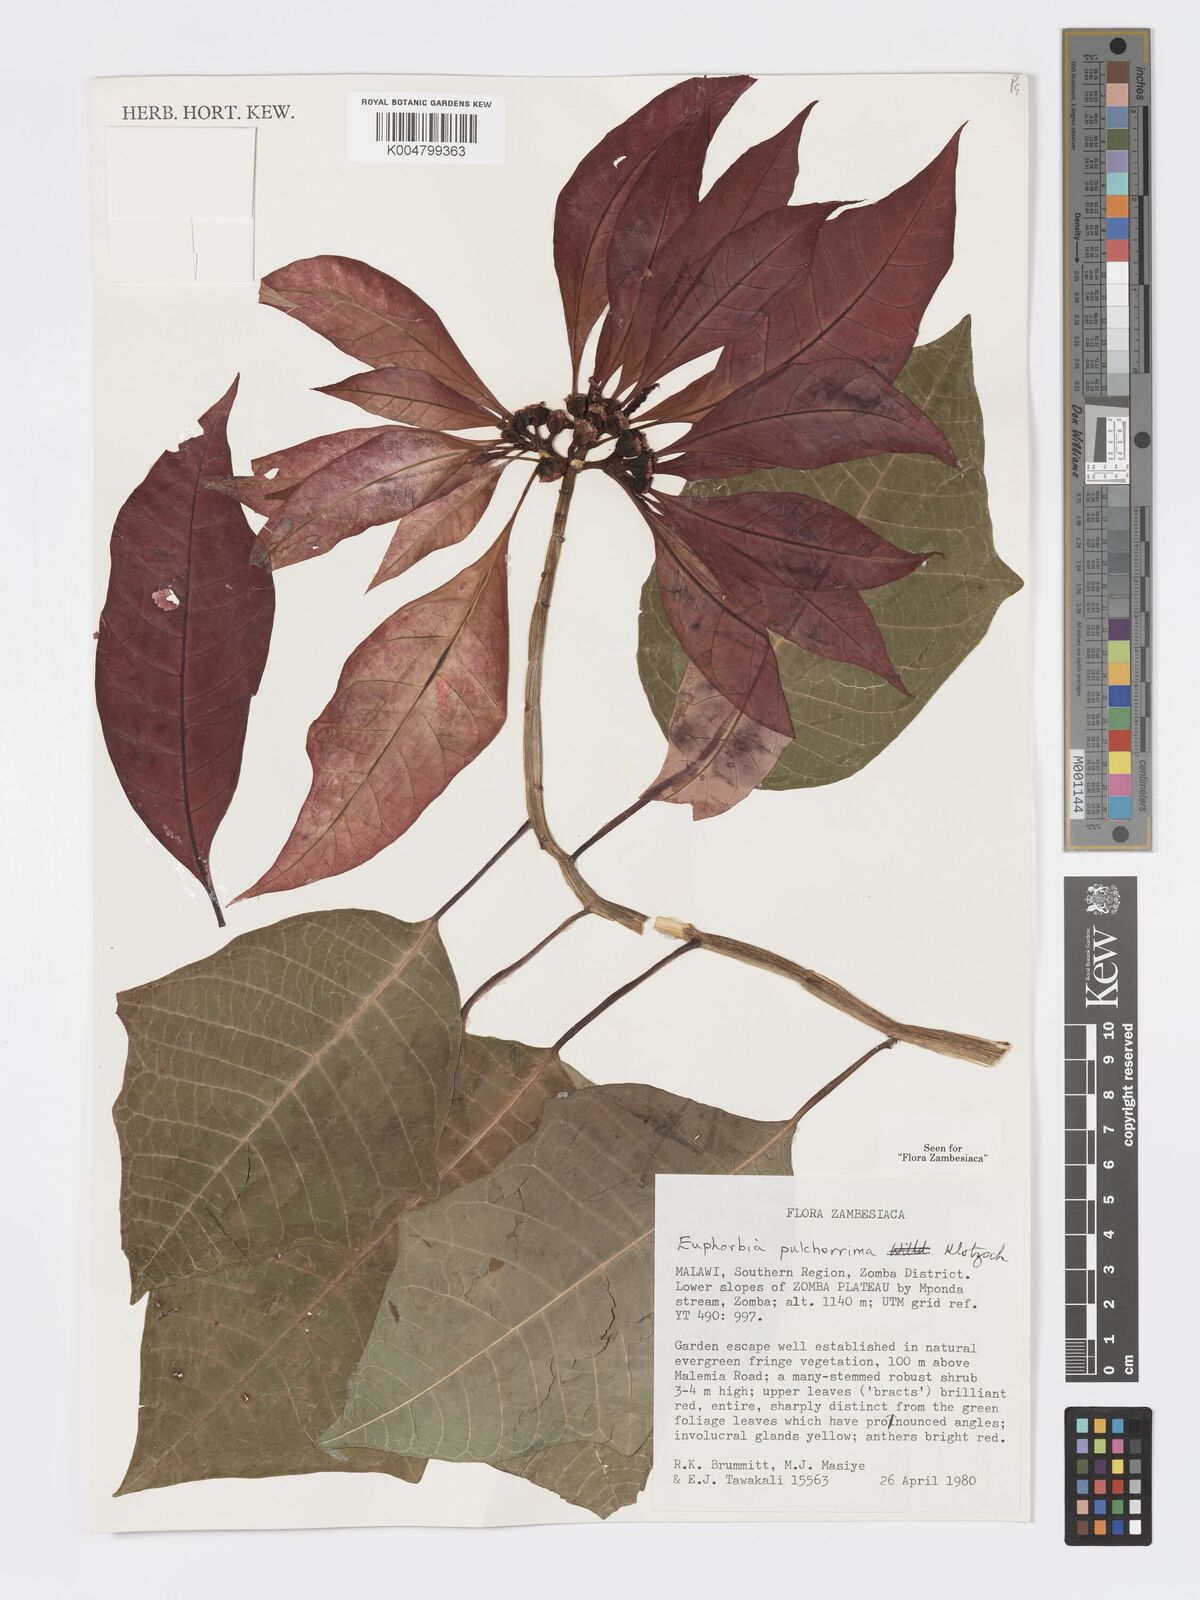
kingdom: Plantae
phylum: Tracheophyta
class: Magnoliopsida
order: Malpighiales
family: Euphorbiaceae
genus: Euphorbia
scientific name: Euphorbia pulcherrima
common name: Christmas-flower
